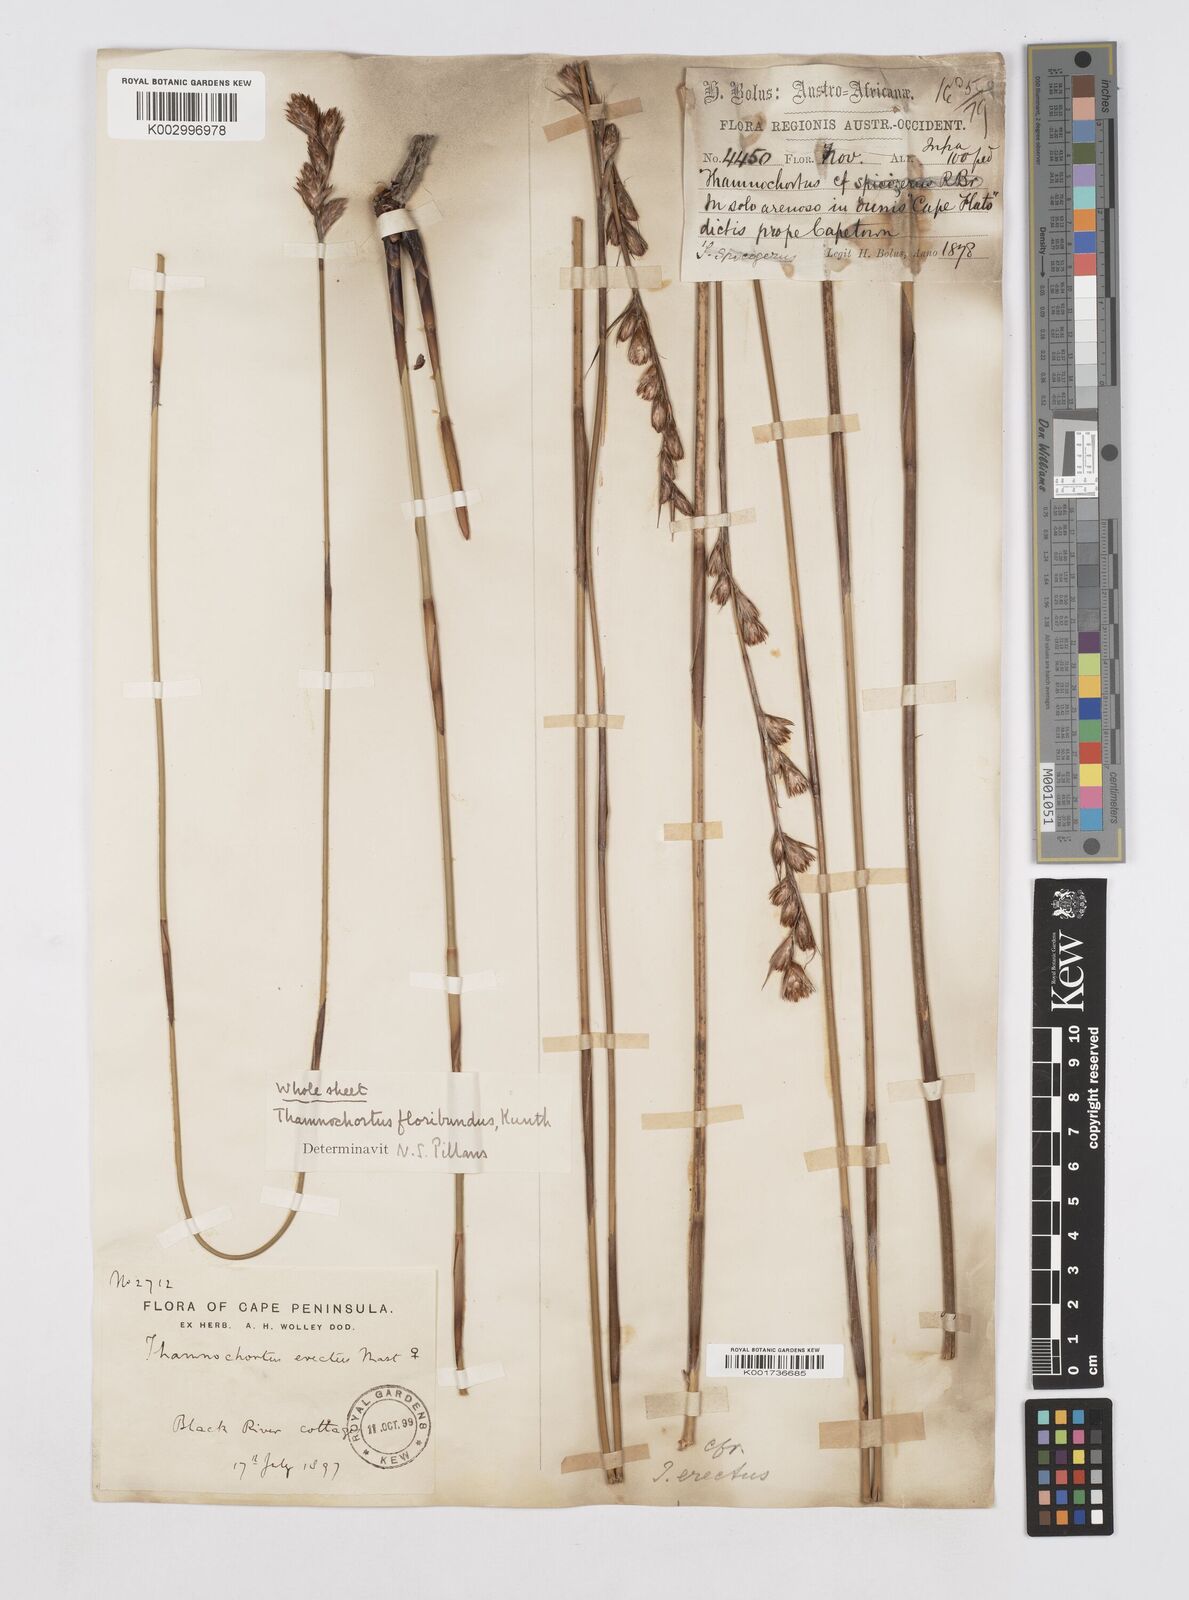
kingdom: Plantae
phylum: Tracheophyta
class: Liliopsida
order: Poales
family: Restionaceae
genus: Thamnochortus
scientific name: Thamnochortus erectus
